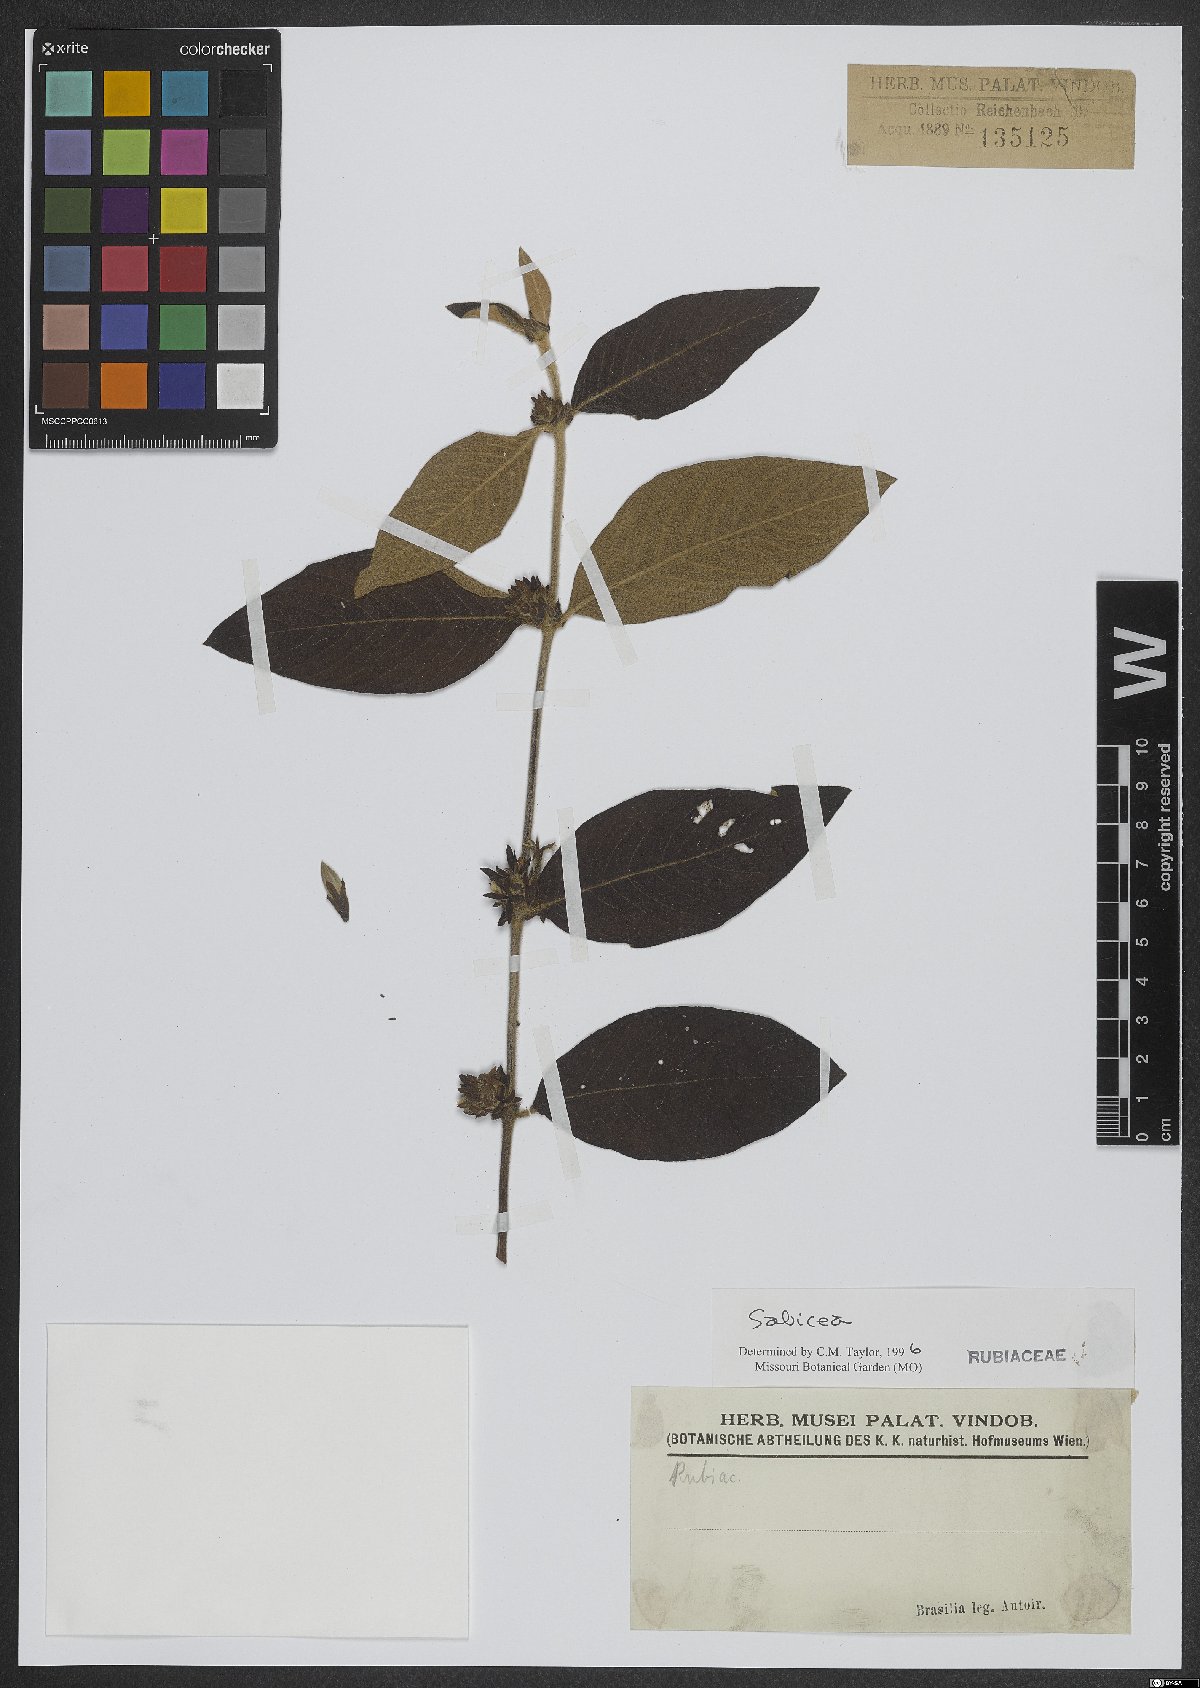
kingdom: Plantae
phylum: Tracheophyta
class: Magnoliopsida
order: Gentianales
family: Rubiaceae
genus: Sabicea
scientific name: Sabicea
